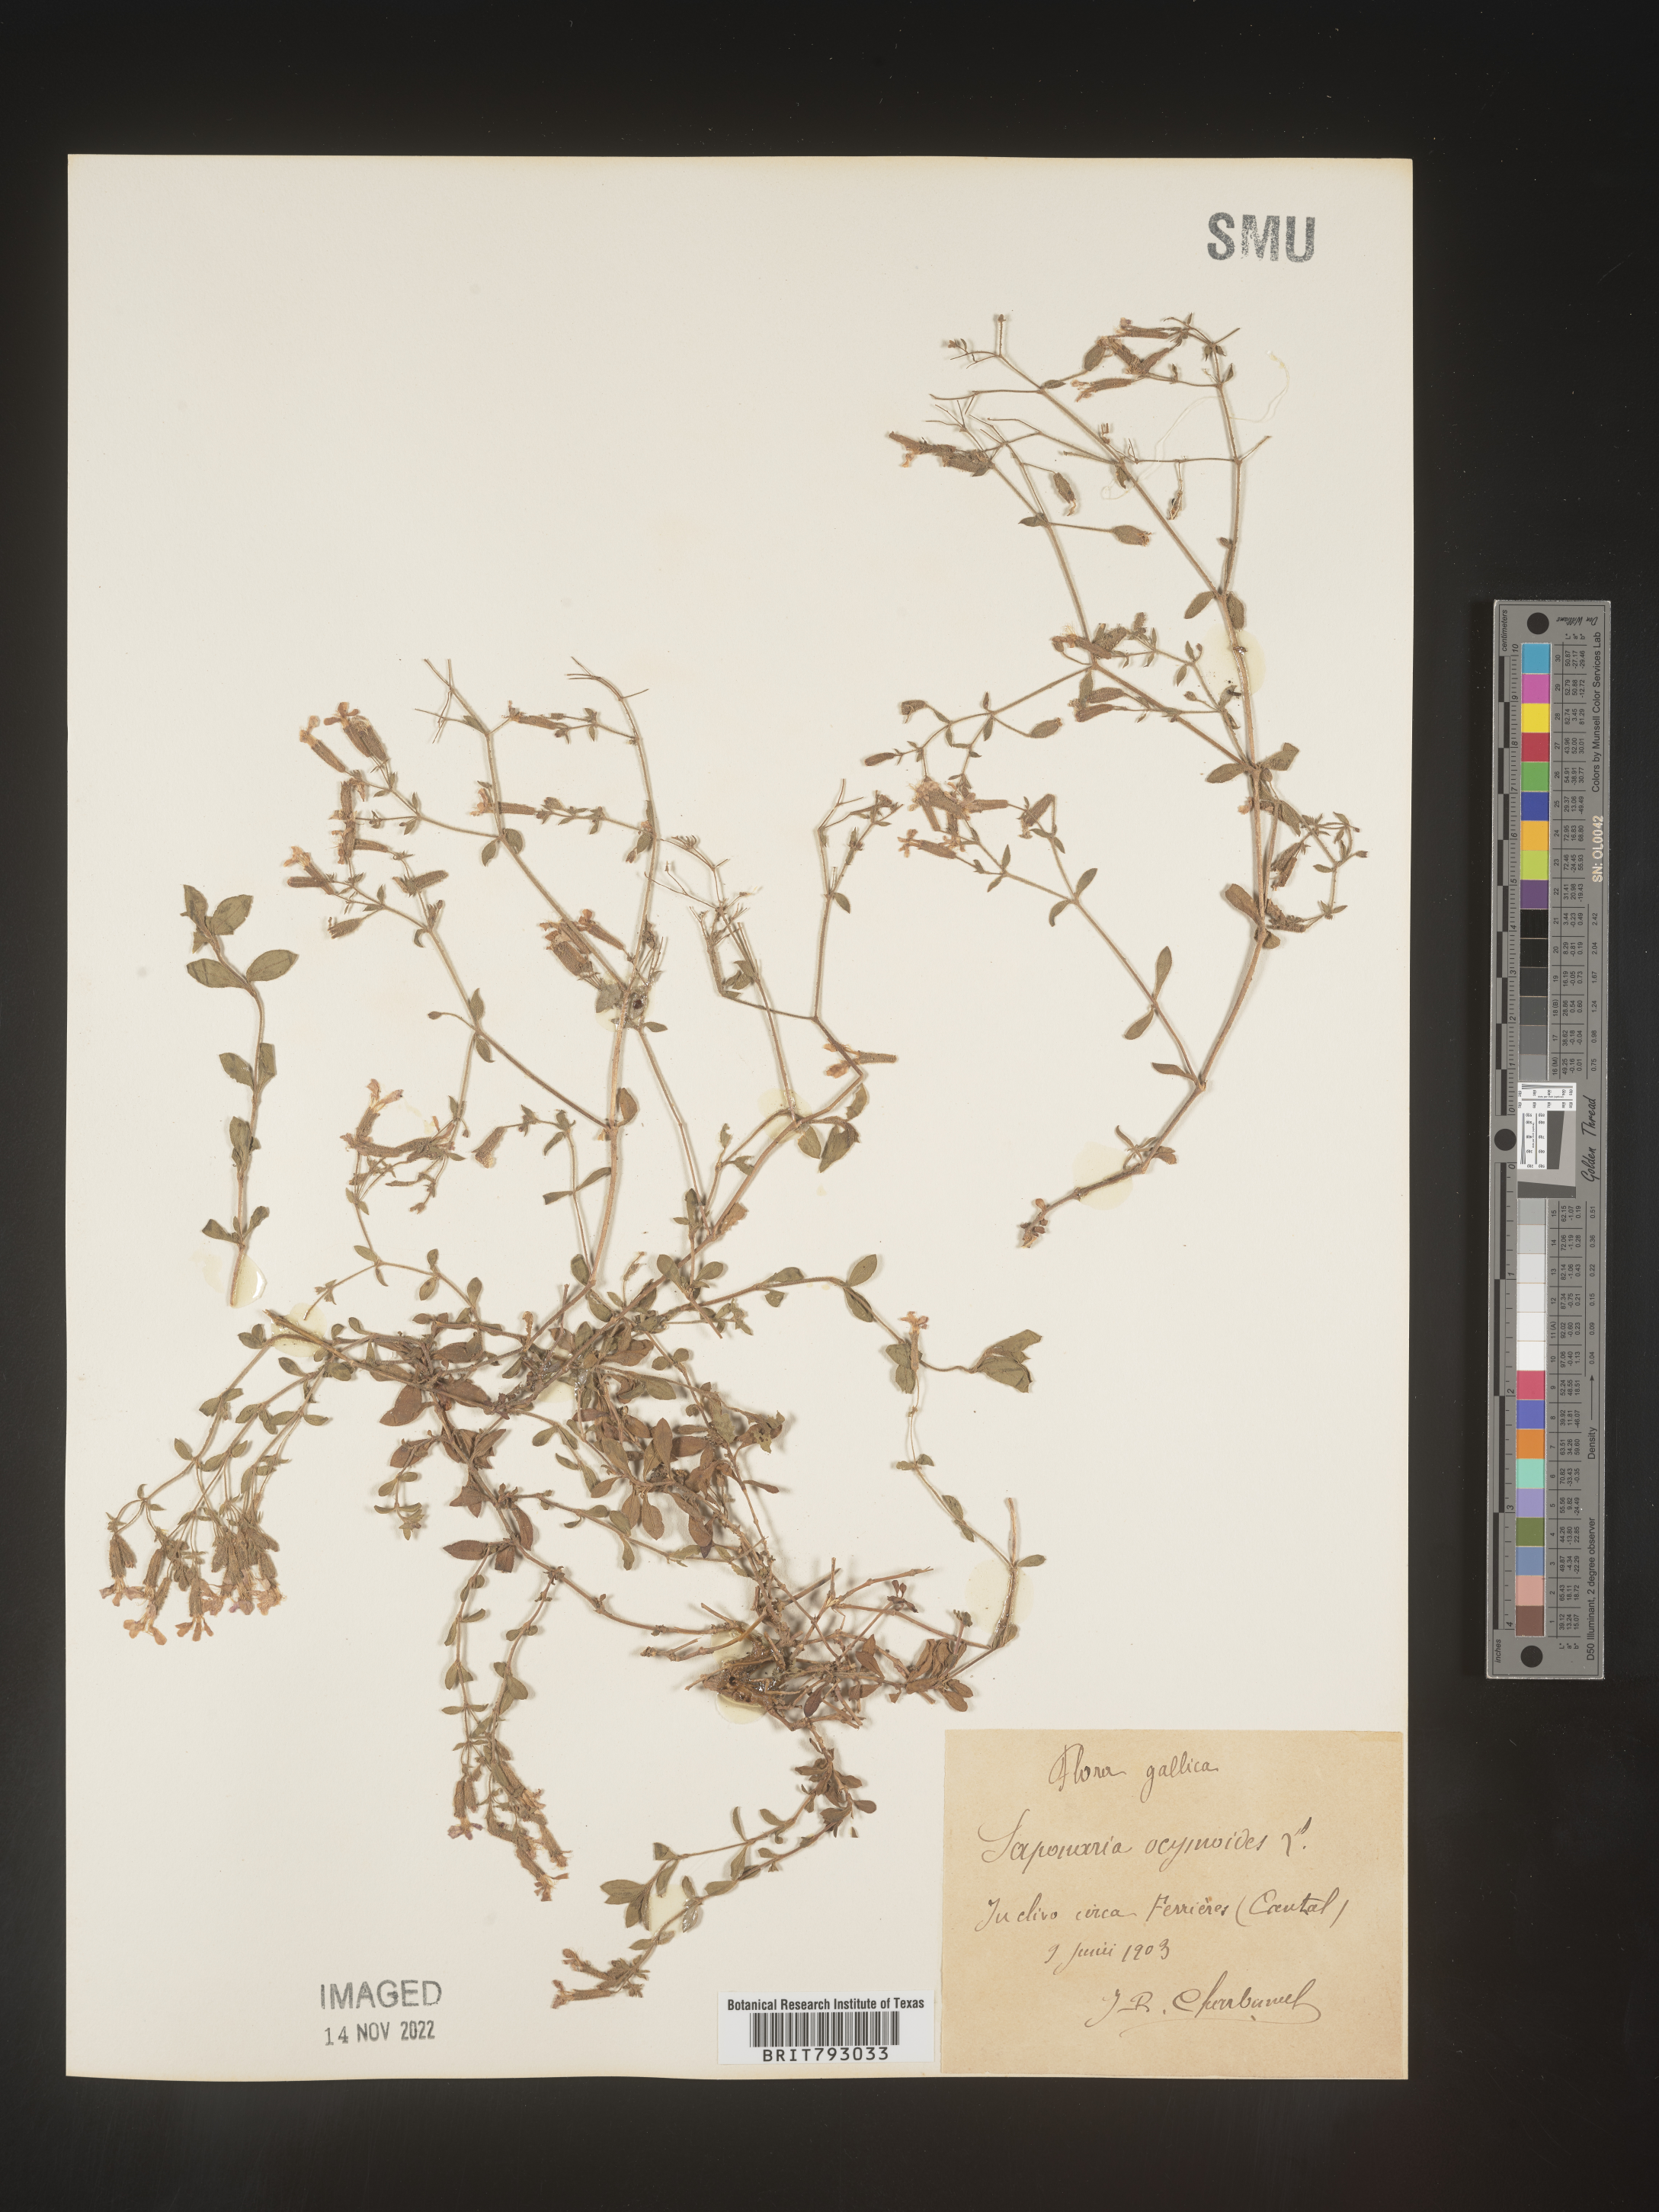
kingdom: Plantae
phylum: Tracheophyta
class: Magnoliopsida
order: Caryophyllales
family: Caryophyllaceae
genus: Saponaria
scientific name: Saponaria
